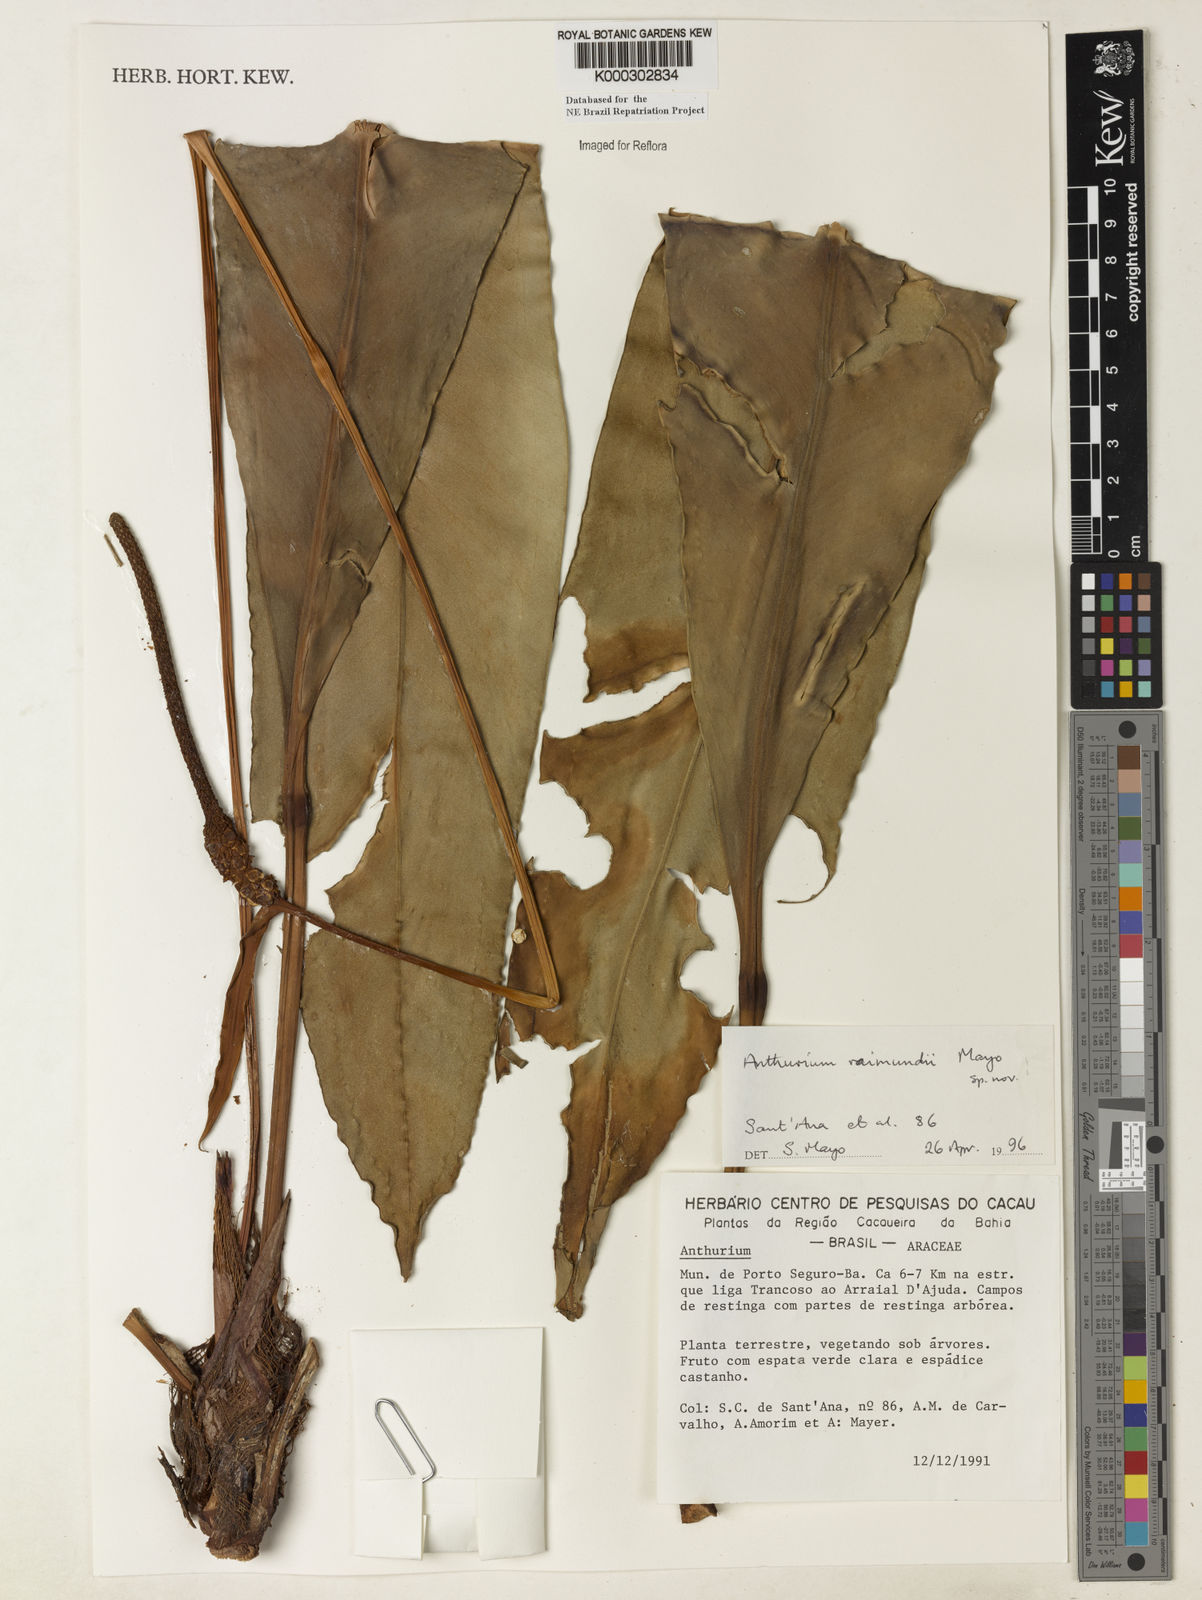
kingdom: Plantae
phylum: Tracheophyta
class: Liliopsida
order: Alismatales
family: Araceae
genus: Anthurium
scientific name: Anthurium raimundii
